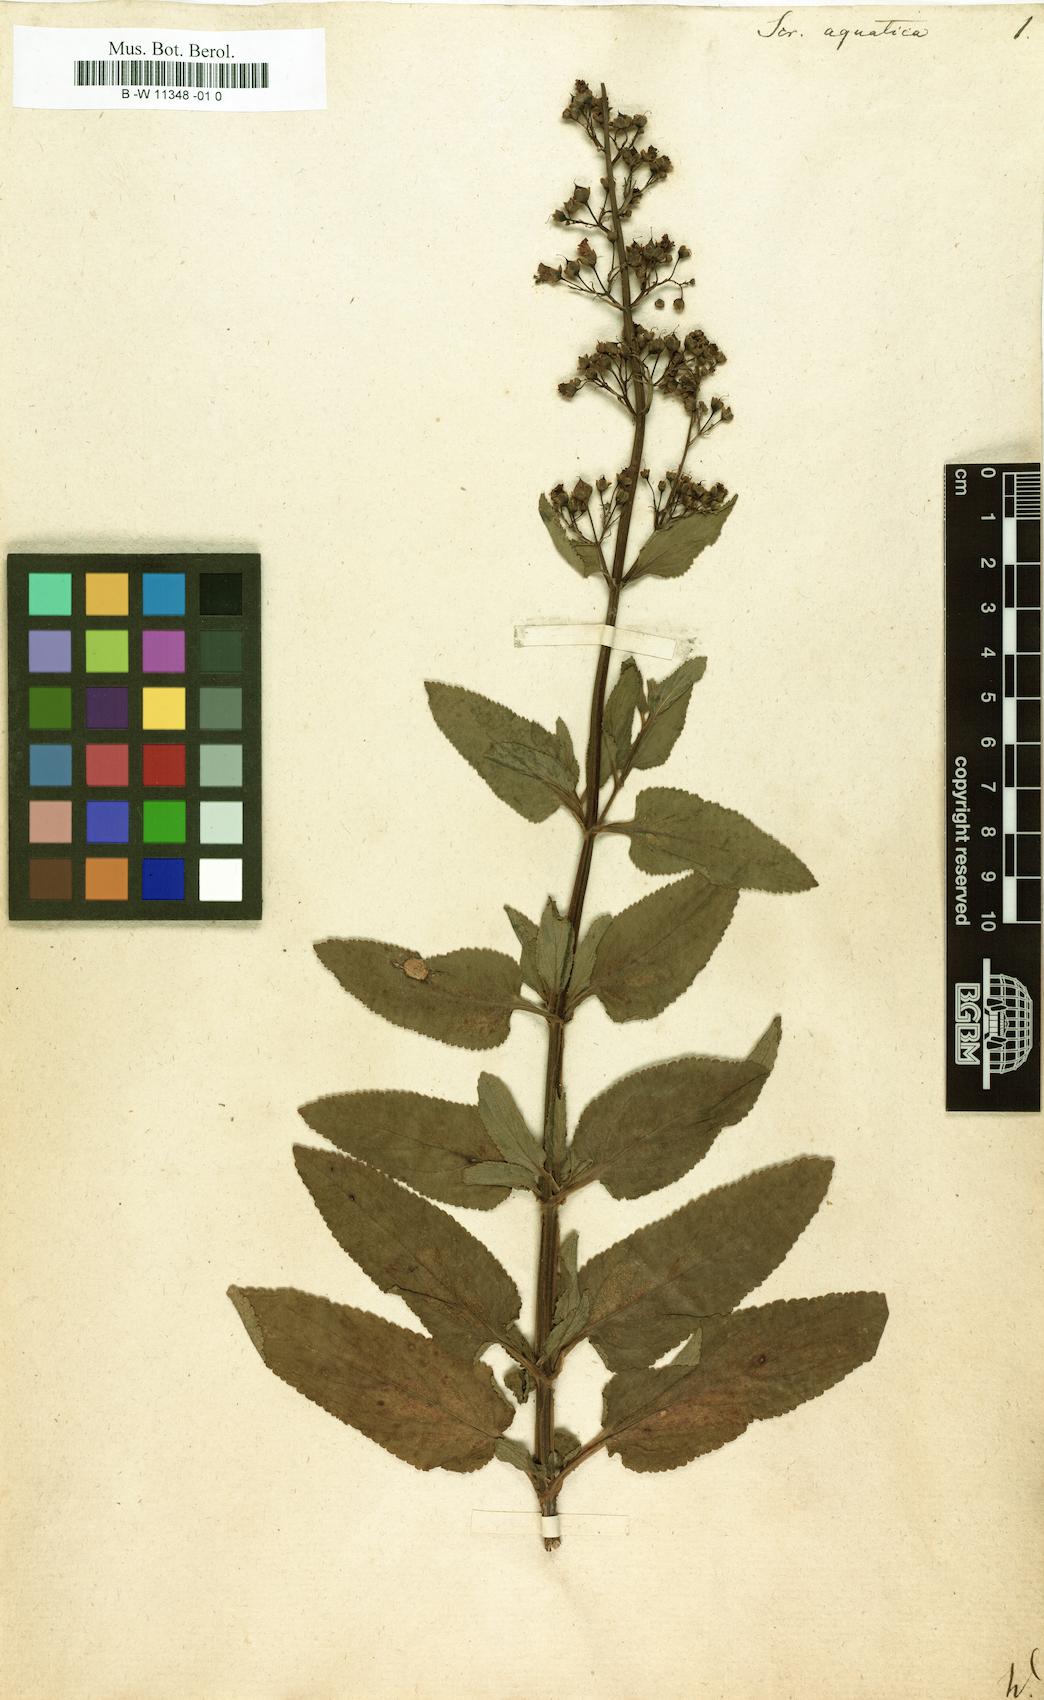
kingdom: Plantae
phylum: Tracheophyta
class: Magnoliopsida
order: Lamiales
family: Scrophulariaceae
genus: Scrophularia
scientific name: Scrophularia
